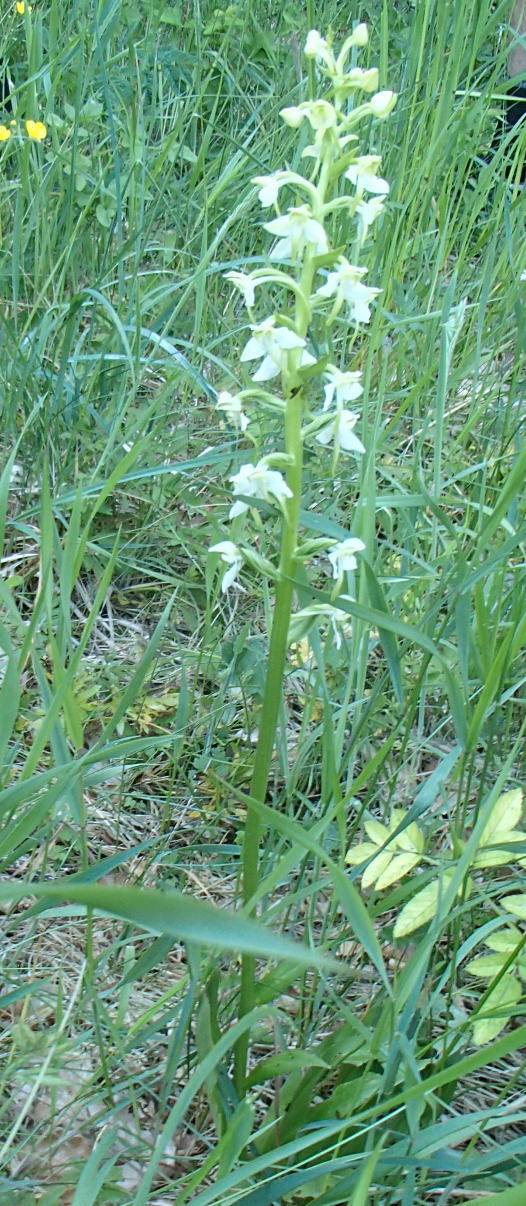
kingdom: Plantae
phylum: Tracheophyta
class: Liliopsida
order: Asparagales
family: Orchidaceae
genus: Platanthera
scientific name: Platanthera chlorantha
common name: Skov-gøgelilje
